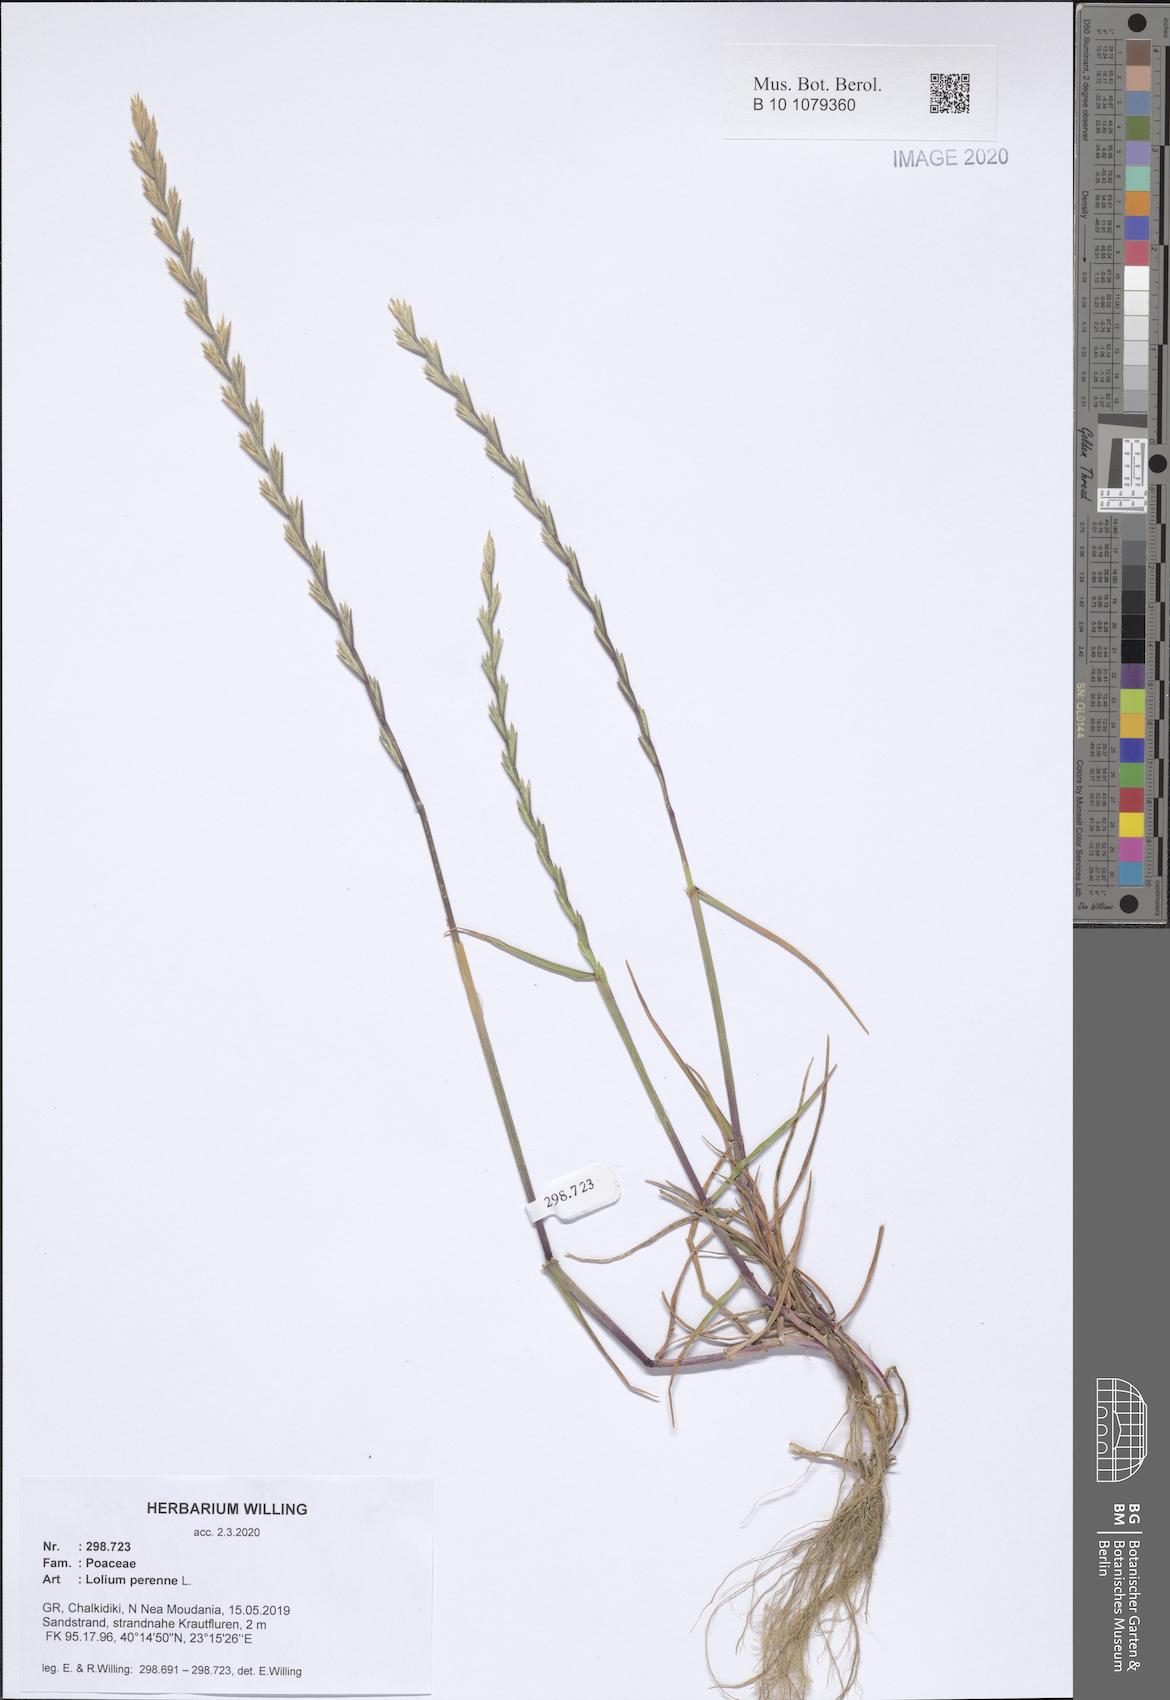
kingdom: Plantae
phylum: Tracheophyta
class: Liliopsida
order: Poales
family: Poaceae
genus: Lolium
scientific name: Lolium perenne
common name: Perennial ryegrass
